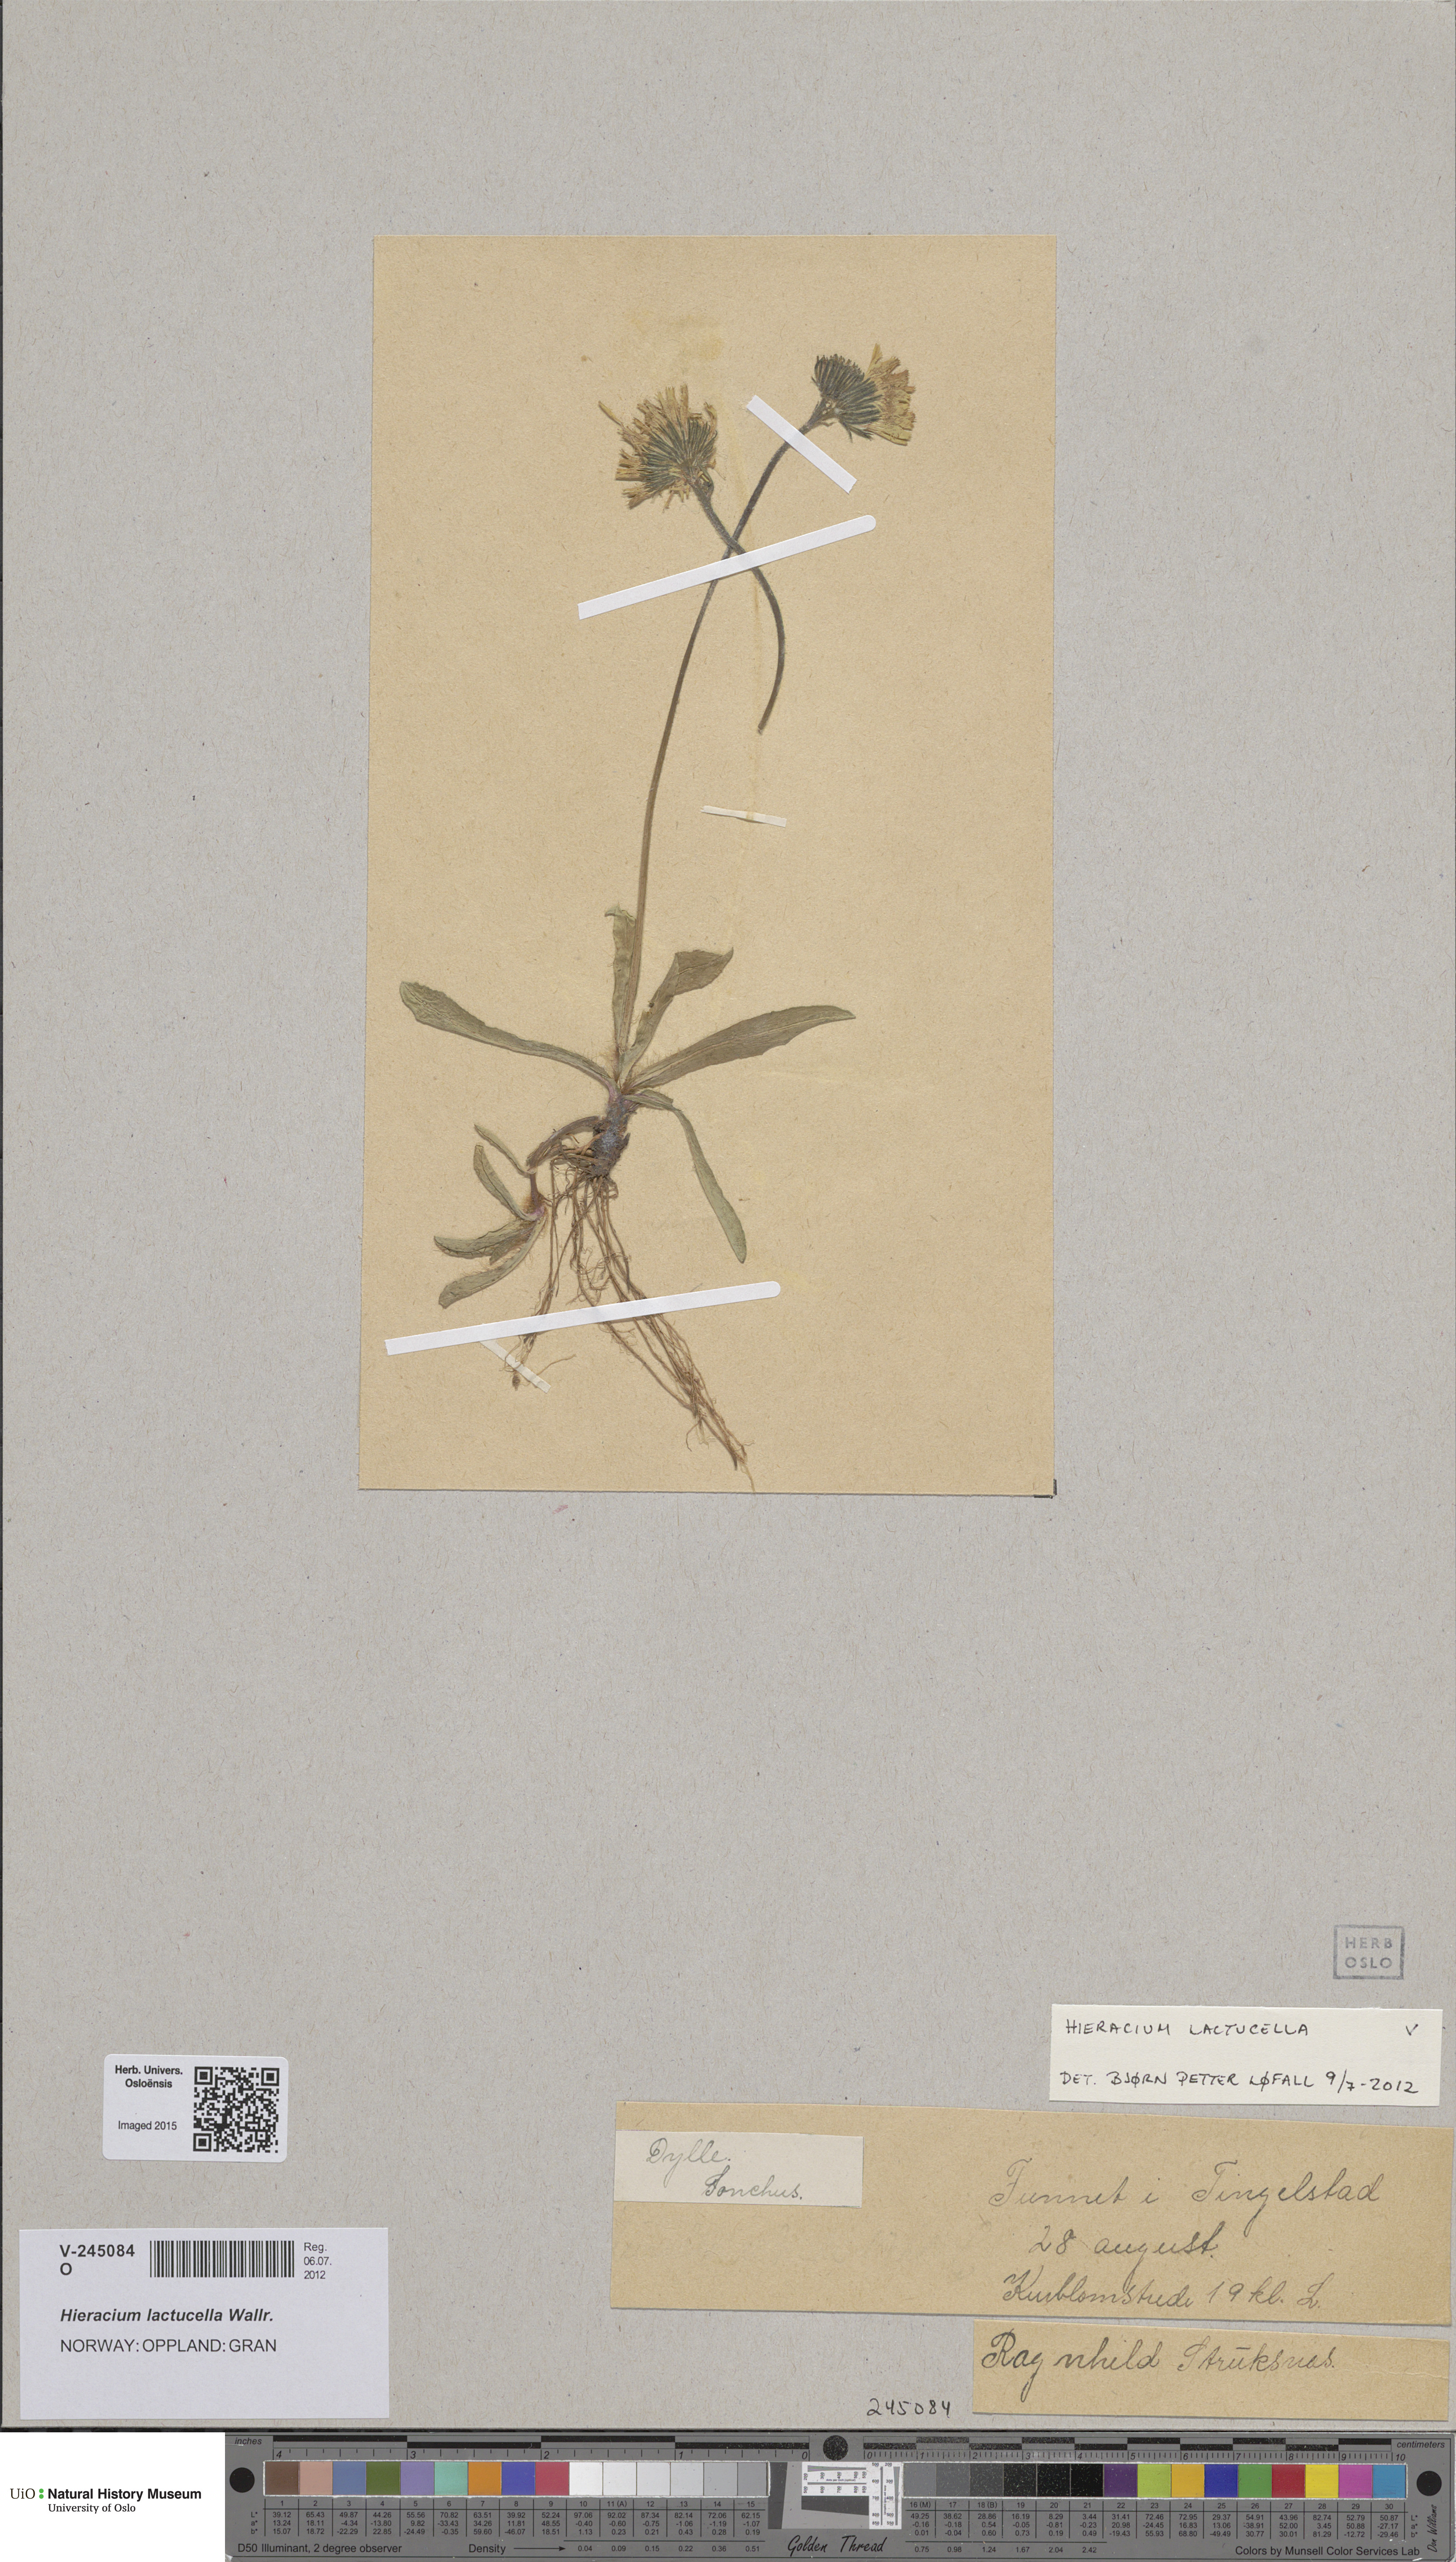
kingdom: Plantae
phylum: Tracheophyta
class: Magnoliopsida
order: Asterales
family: Asteraceae
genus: Pilosella
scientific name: Pilosella lactucella
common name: Glaucous fox-and-cubs
